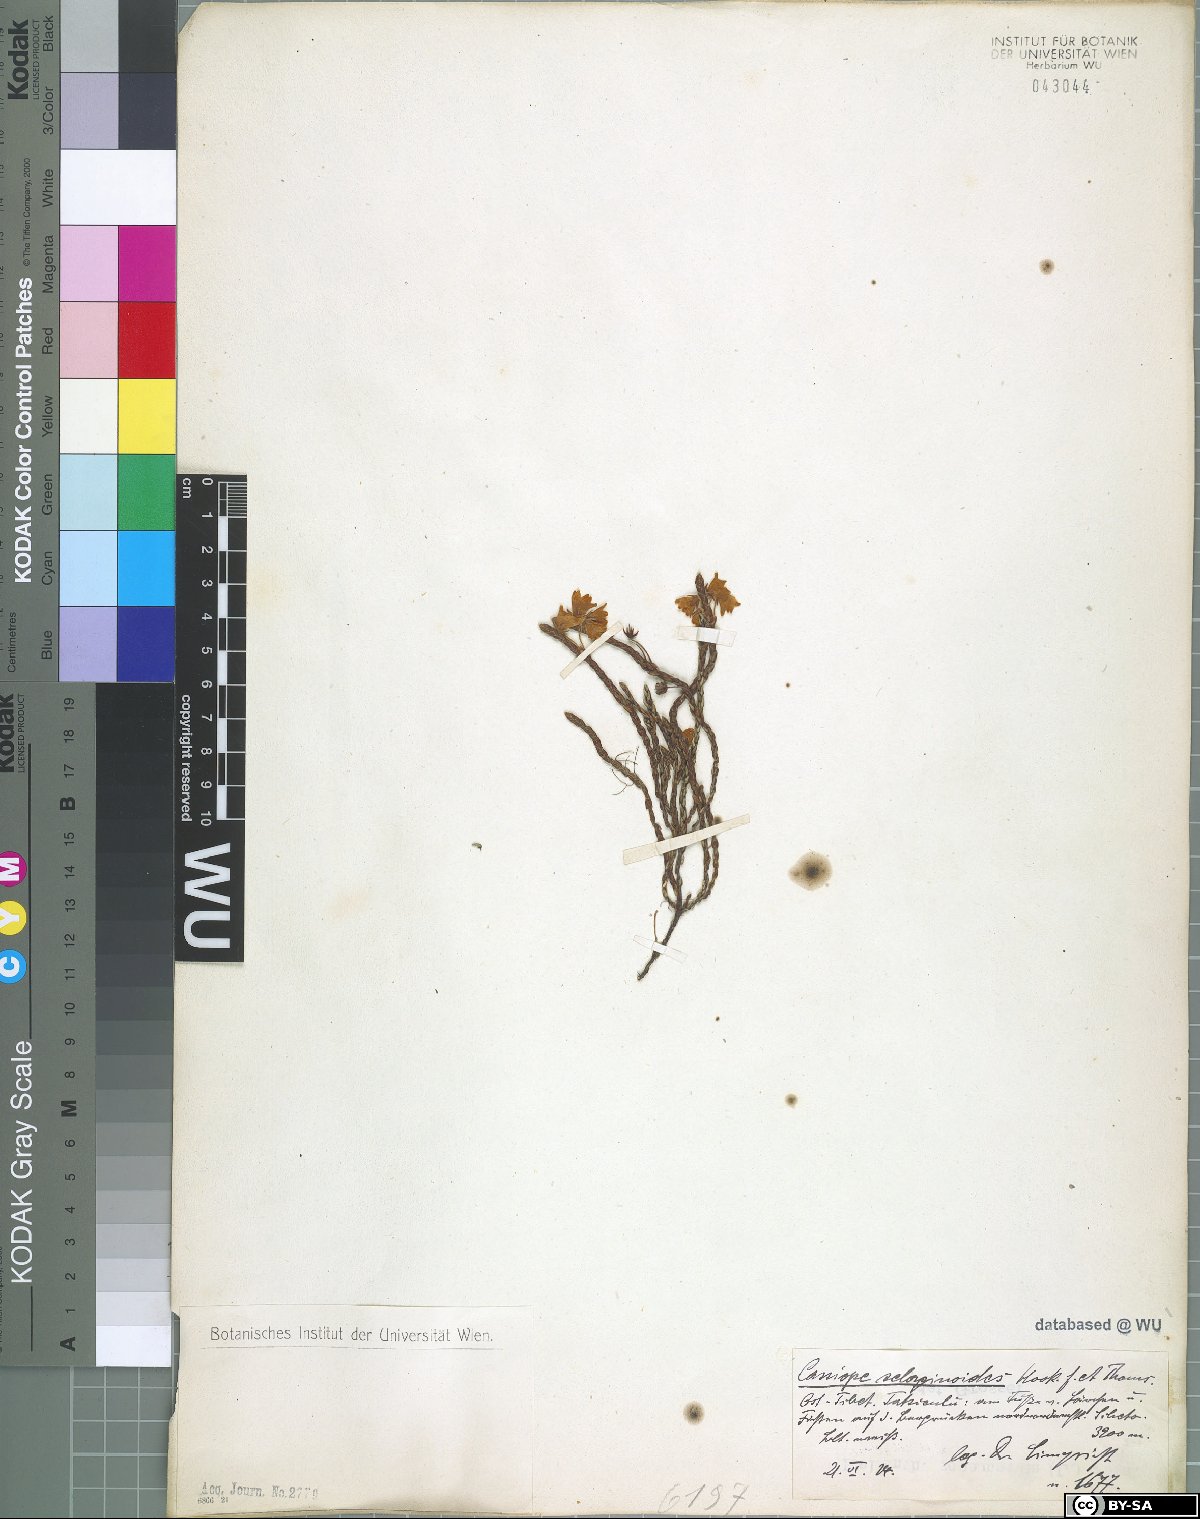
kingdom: Plantae
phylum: Tracheophyta
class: Magnoliopsida
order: Ericales
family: Ericaceae
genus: Cassiope
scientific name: Cassiope selaginoides
